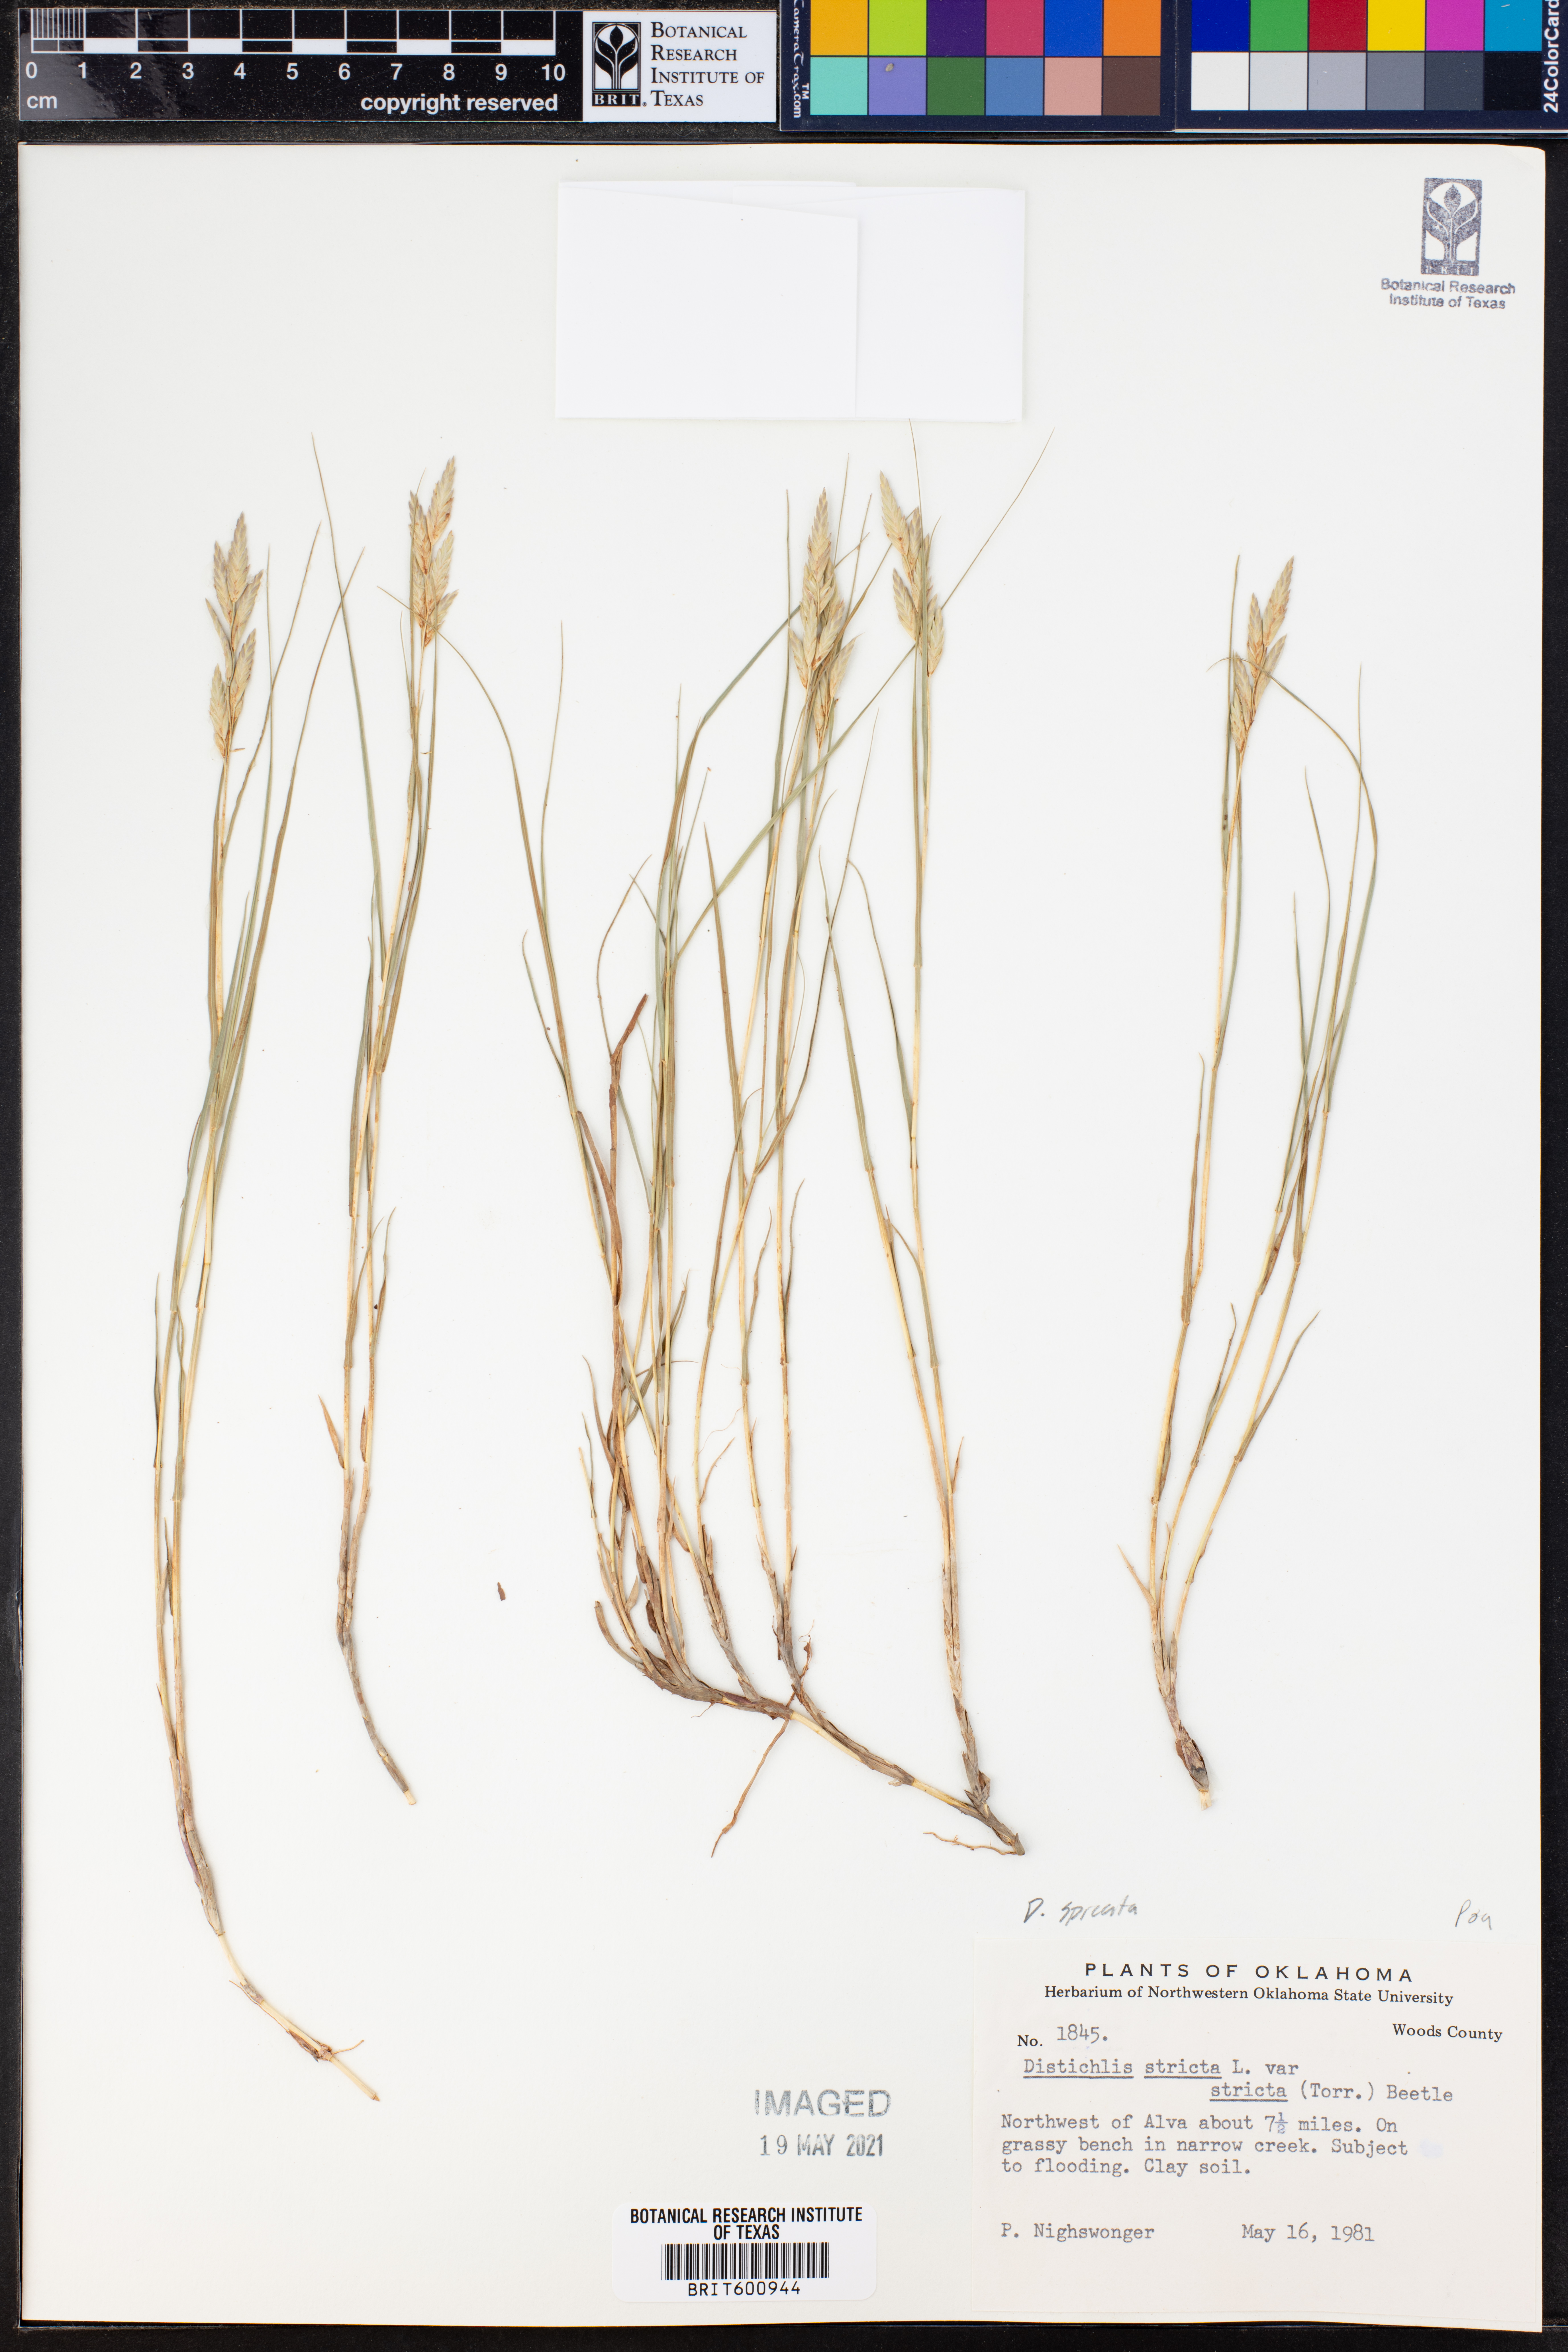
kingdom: Plantae
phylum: Tracheophyta
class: Liliopsida
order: Poales
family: Poaceae
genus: Distichlis
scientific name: Distichlis spicata
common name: Saltgrass
